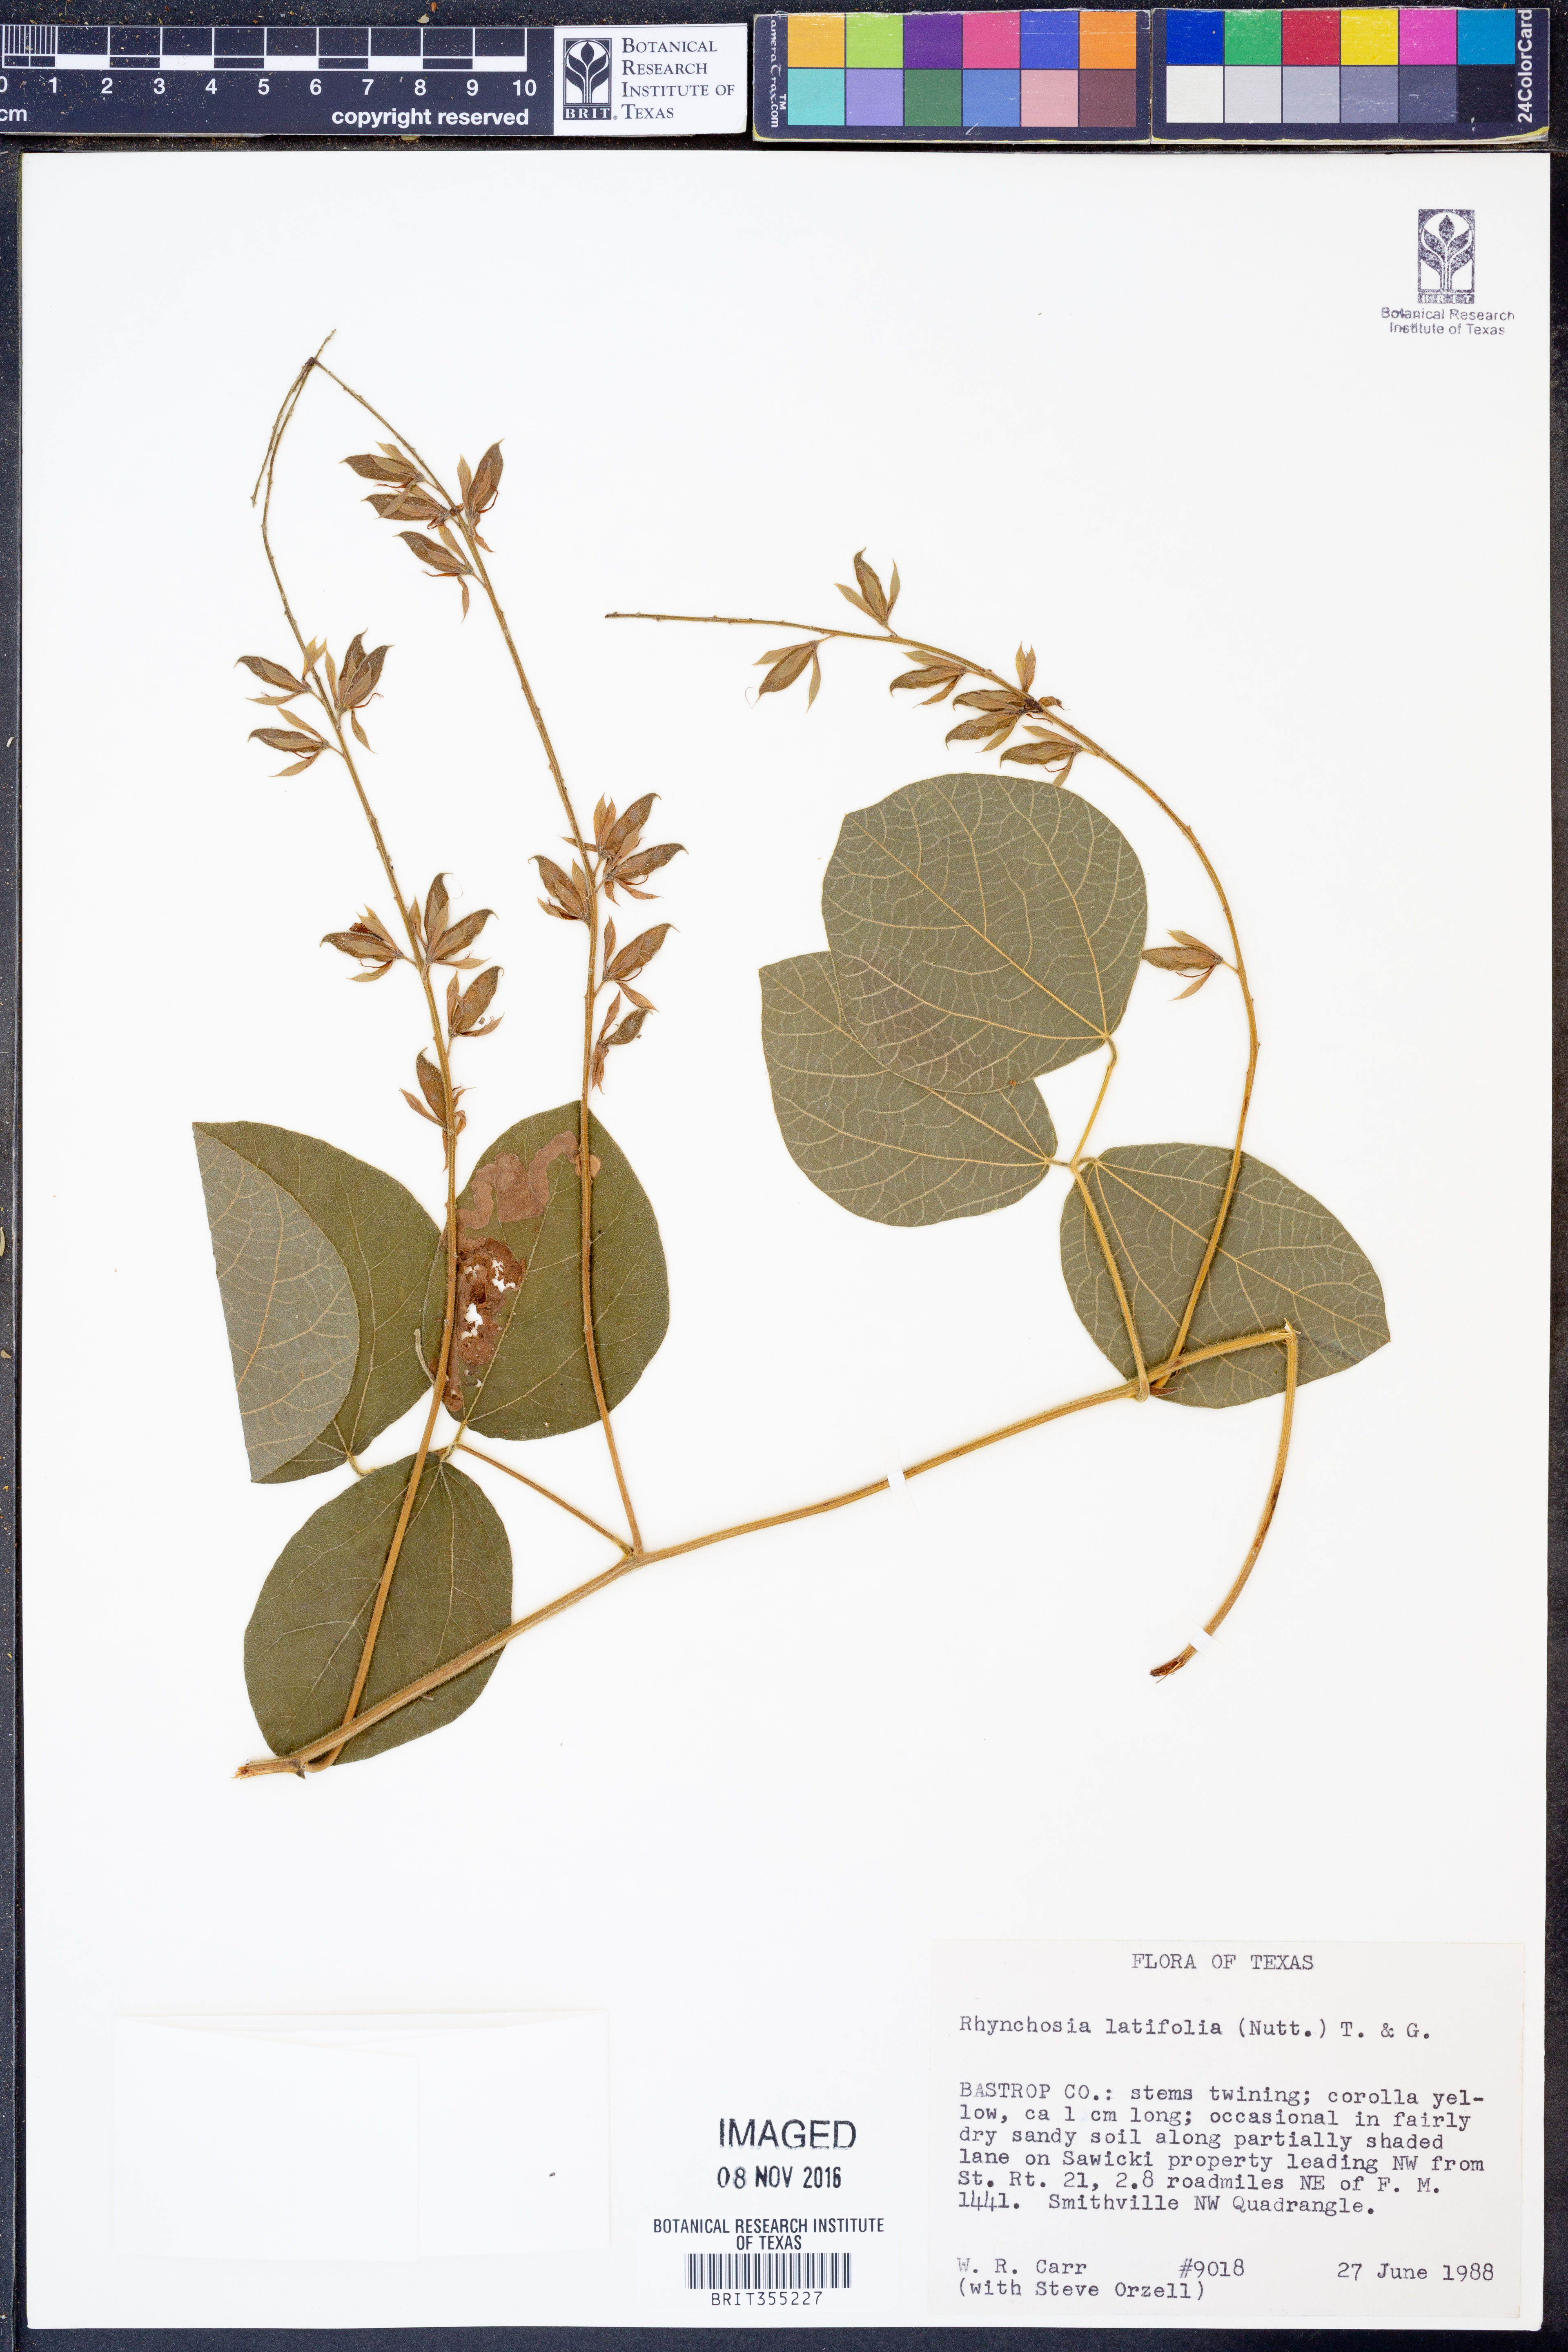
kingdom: Plantae
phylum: Tracheophyta
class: Magnoliopsida
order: Fabales
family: Fabaceae
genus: Rhynchosia
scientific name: Rhynchosia latifolia
